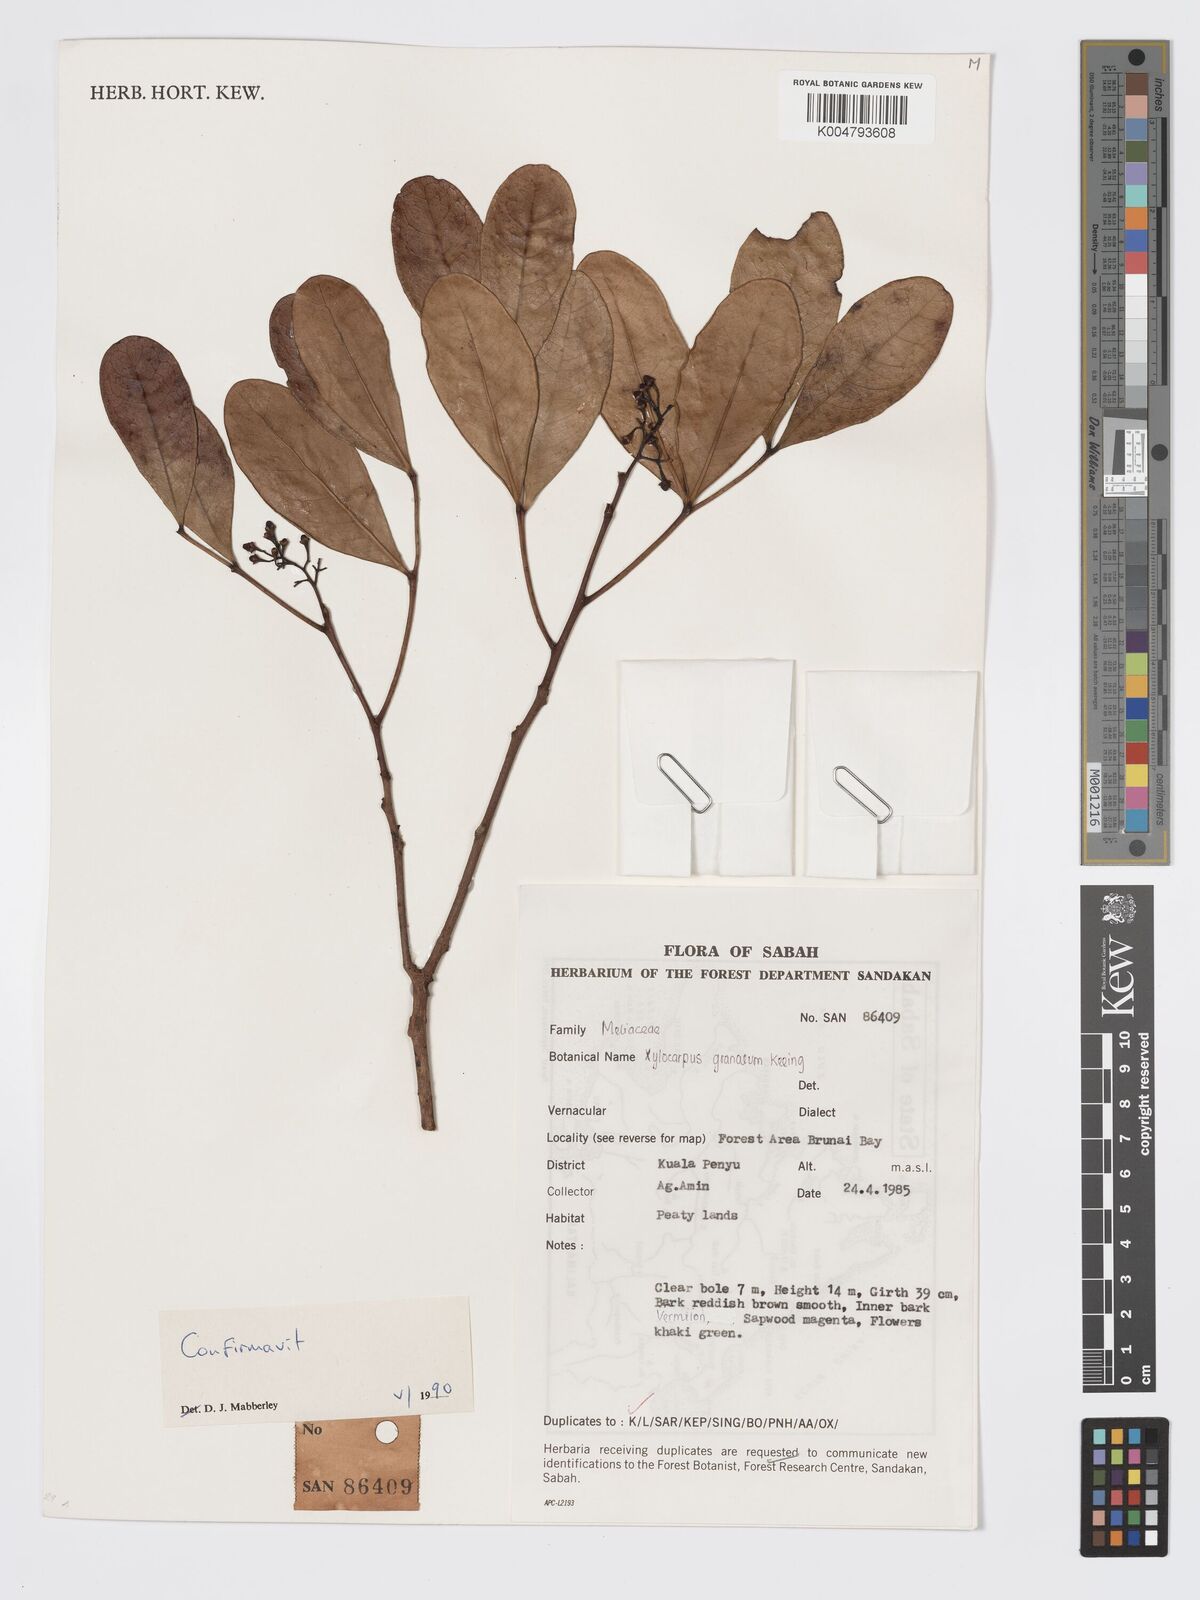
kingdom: Plantae
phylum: Tracheophyta
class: Magnoliopsida
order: Sapindales
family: Meliaceae
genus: Xylocarpus
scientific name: Xylocarpus granatum
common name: Apple mangrove
